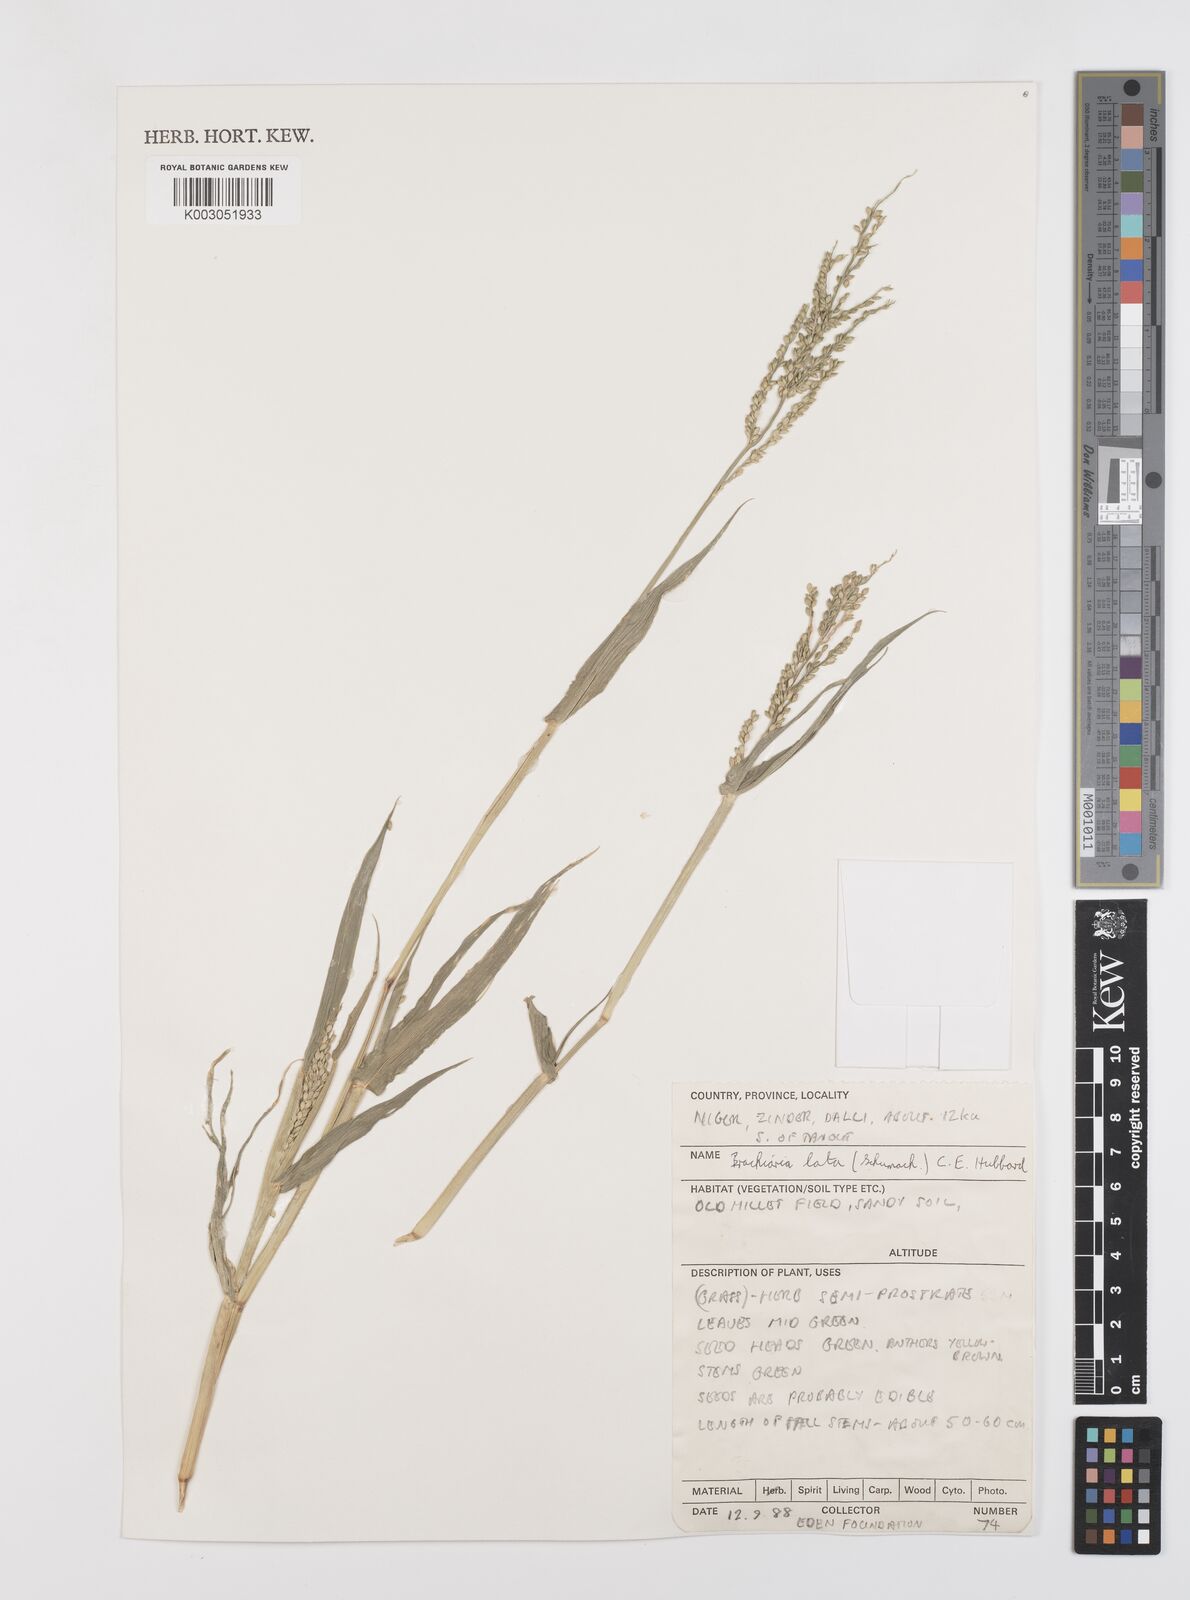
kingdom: Plantae
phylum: Tracheophyta
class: Liliopsida
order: Poales
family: Poaceae
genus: Urochloa
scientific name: Urochloa lata
